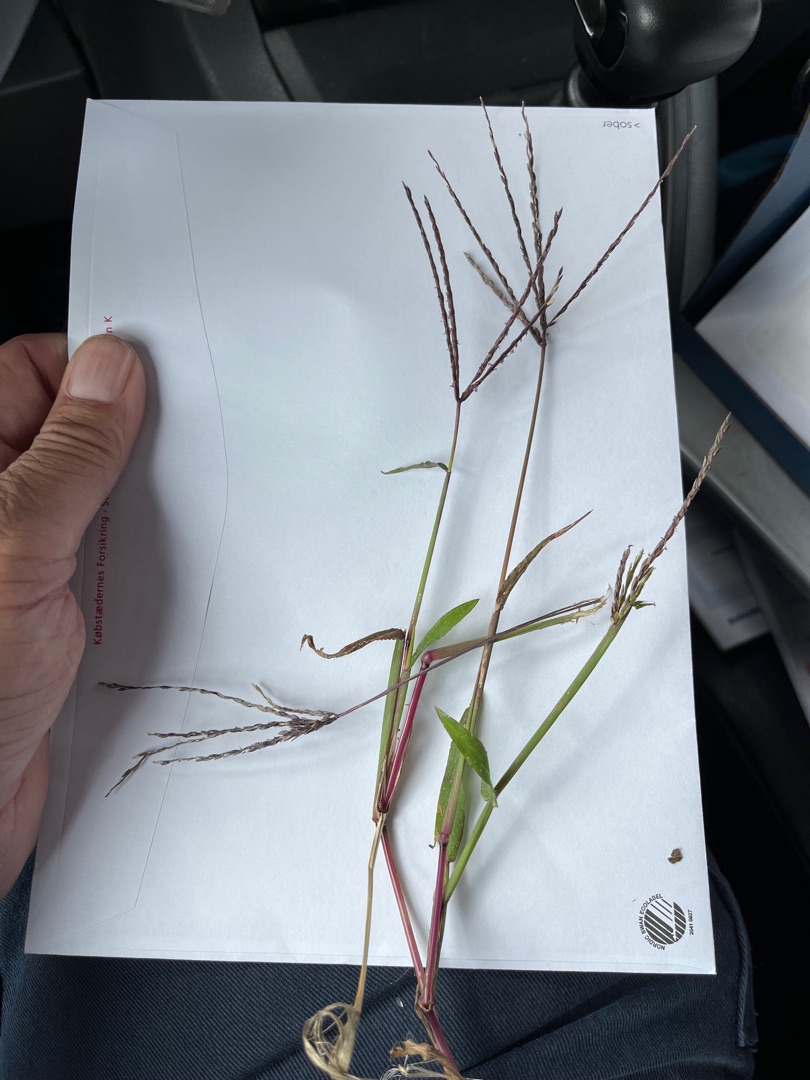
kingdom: Plantae
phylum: Tracheophyta
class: Liliopsida
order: Poales
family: Poaceae
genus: Digitaria
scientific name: Digitaria sanguinalis
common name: Blodhirse
